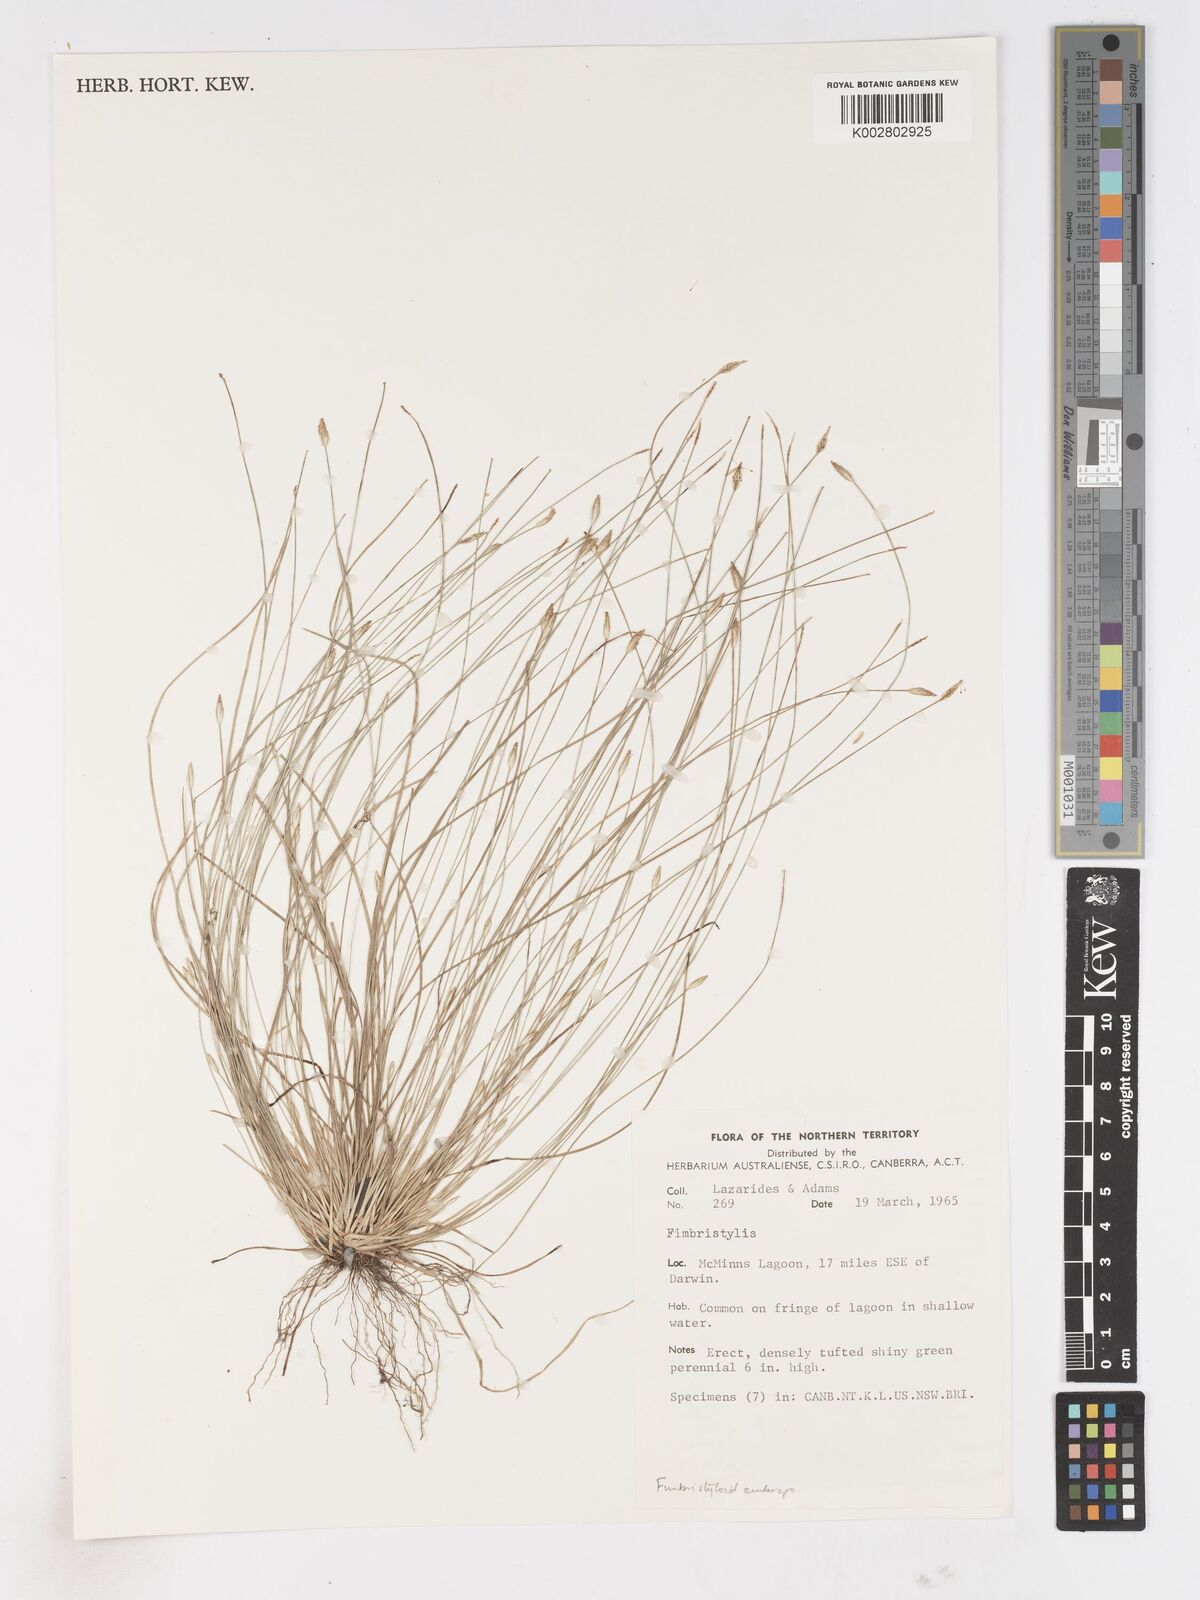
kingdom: Plantae
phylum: Tracheophyta
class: Liliopsida
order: Poales
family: Cyperaceae
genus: Fimbristylis
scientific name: Fimbristylis
